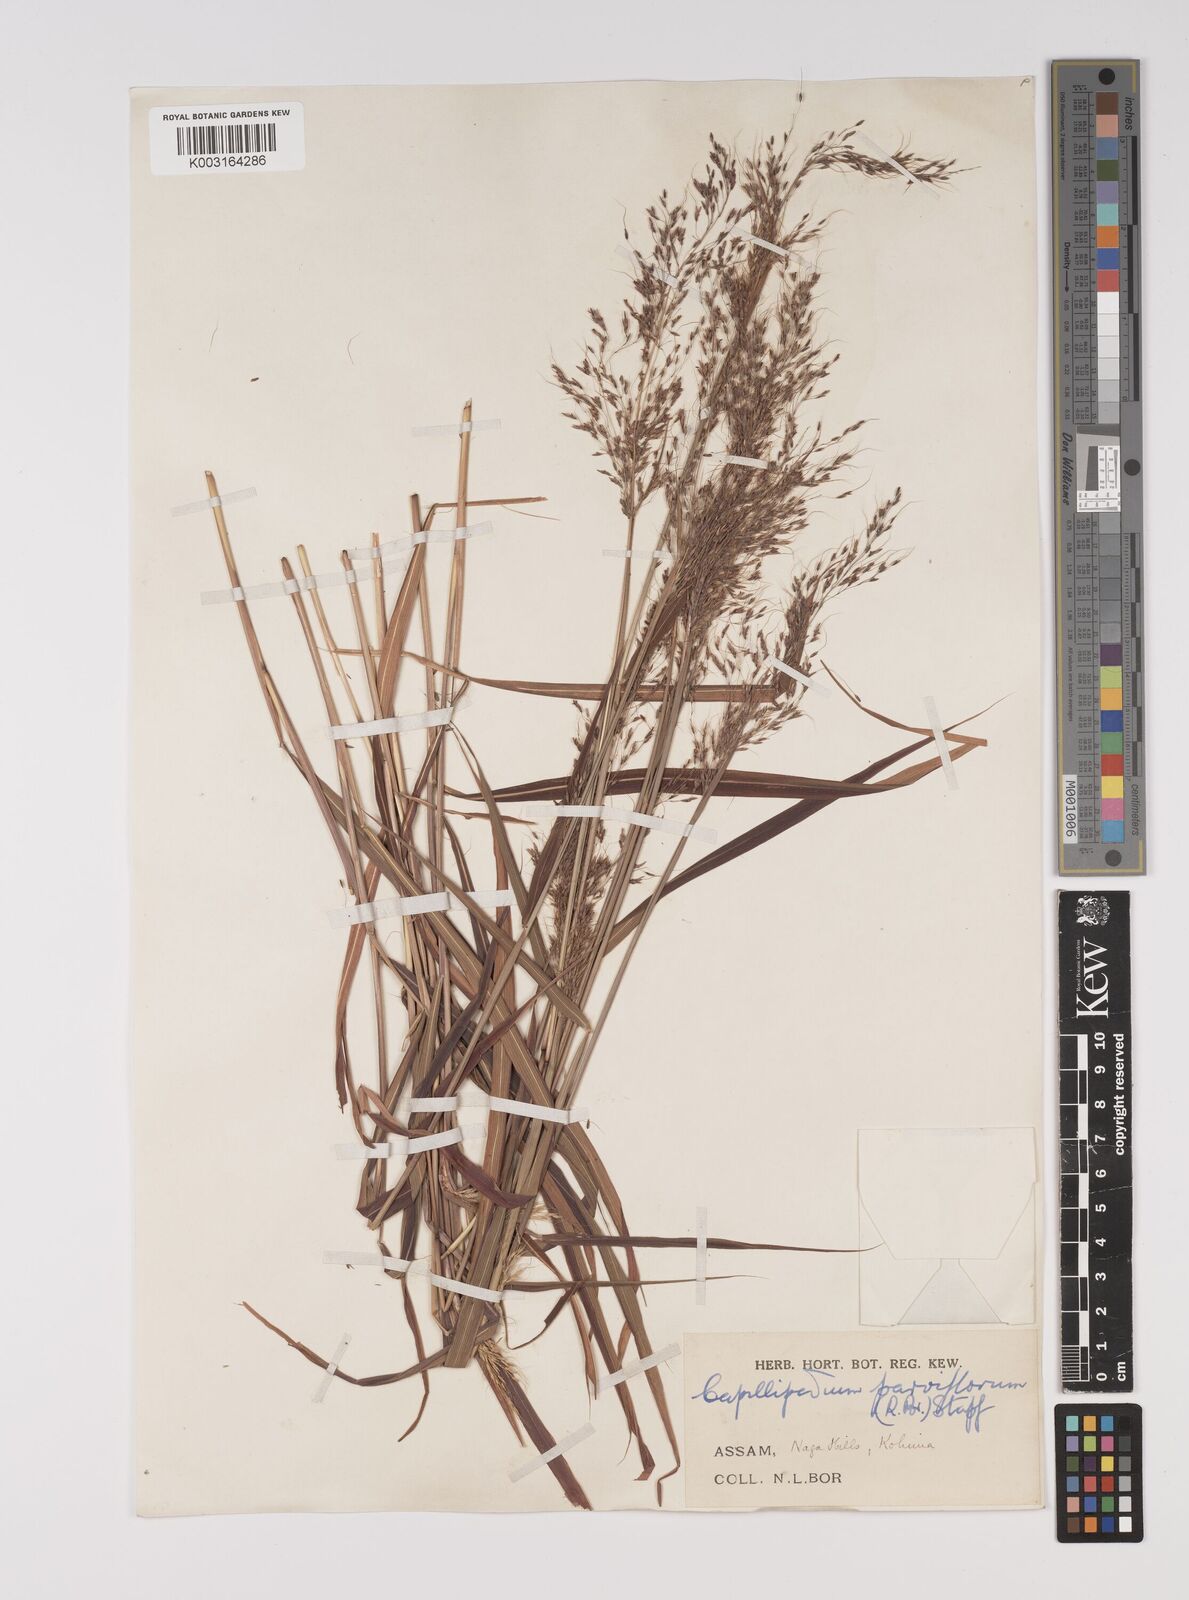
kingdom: Plantae
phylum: Tracheophyta
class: Liliopsida
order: Poales
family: Poaceae
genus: Capillipedium
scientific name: Capillipedium parviflorum
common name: Golden-beard
